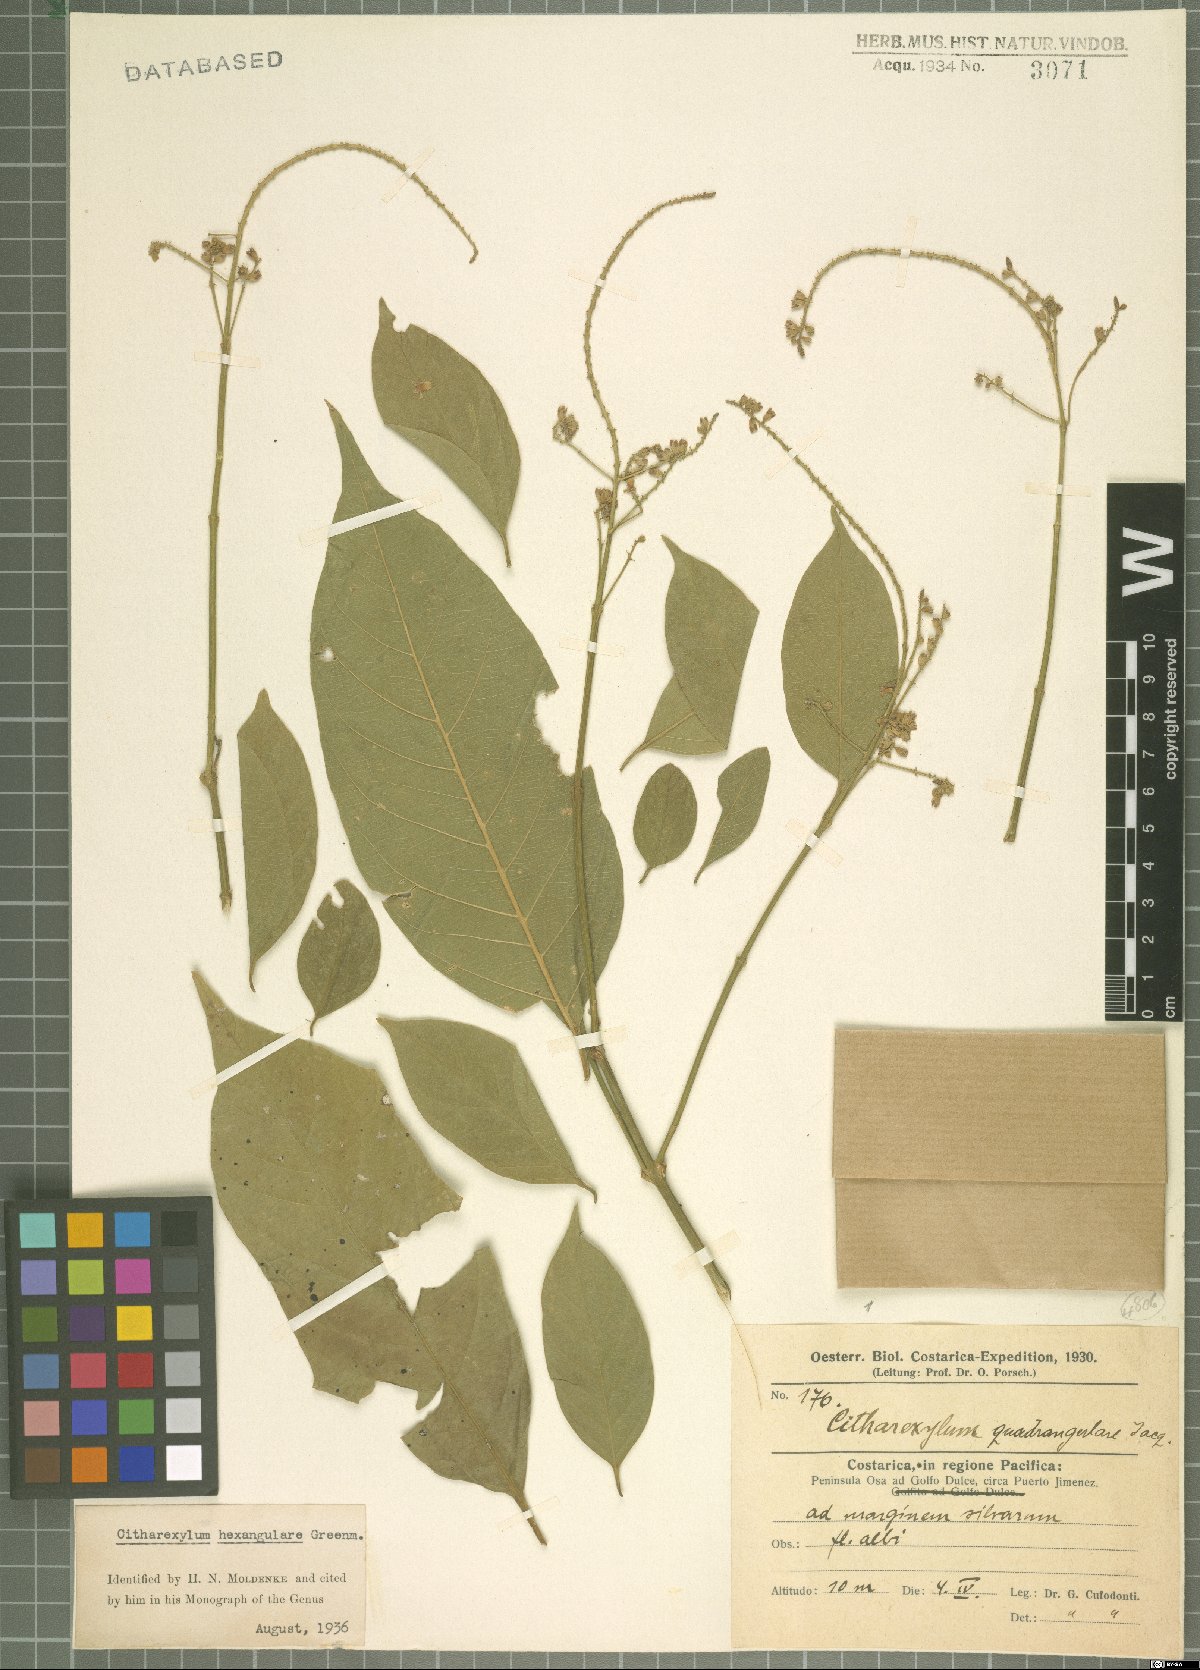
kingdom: Plantae
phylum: Tracheophyta
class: Magnoliopsida
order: Lamiales
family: Verbenaceae
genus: Citharexylum
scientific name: Citharexylum hexangulare
